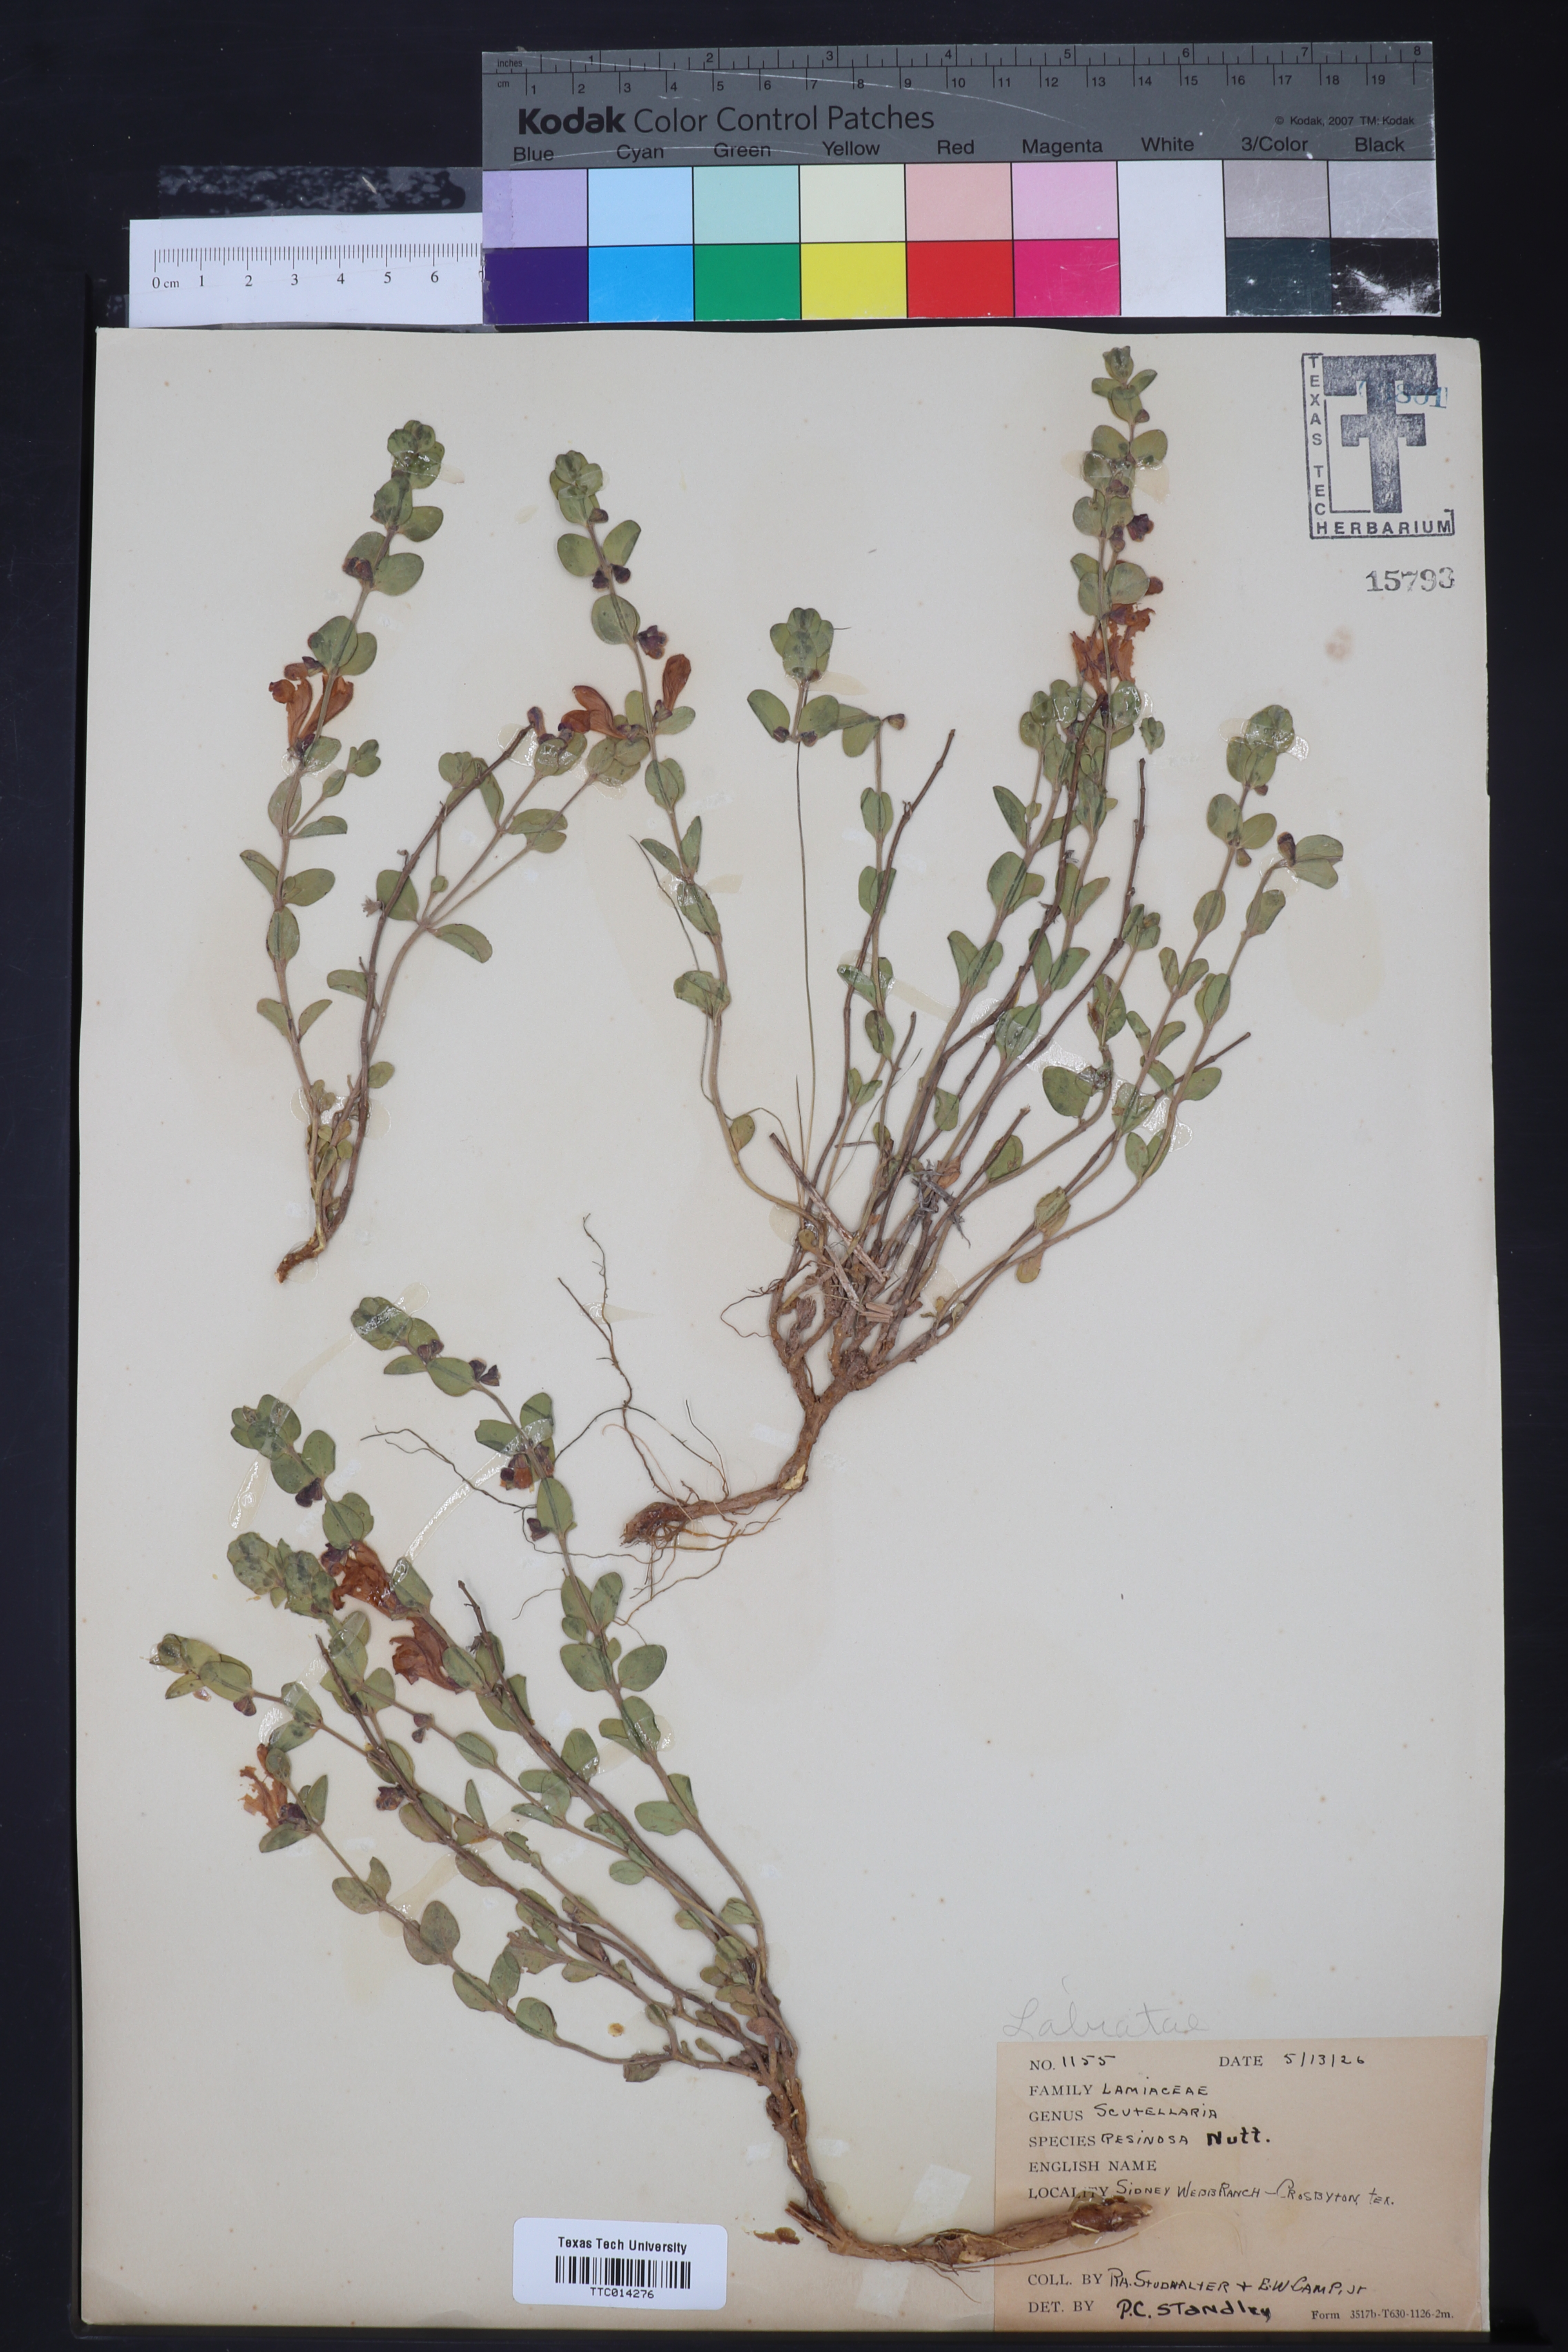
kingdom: Plantae
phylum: Tracheophyta
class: Magnoliopsida
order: Lamiales
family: Lamiaceae
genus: Scutellaria
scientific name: Scutellaria resinosa
